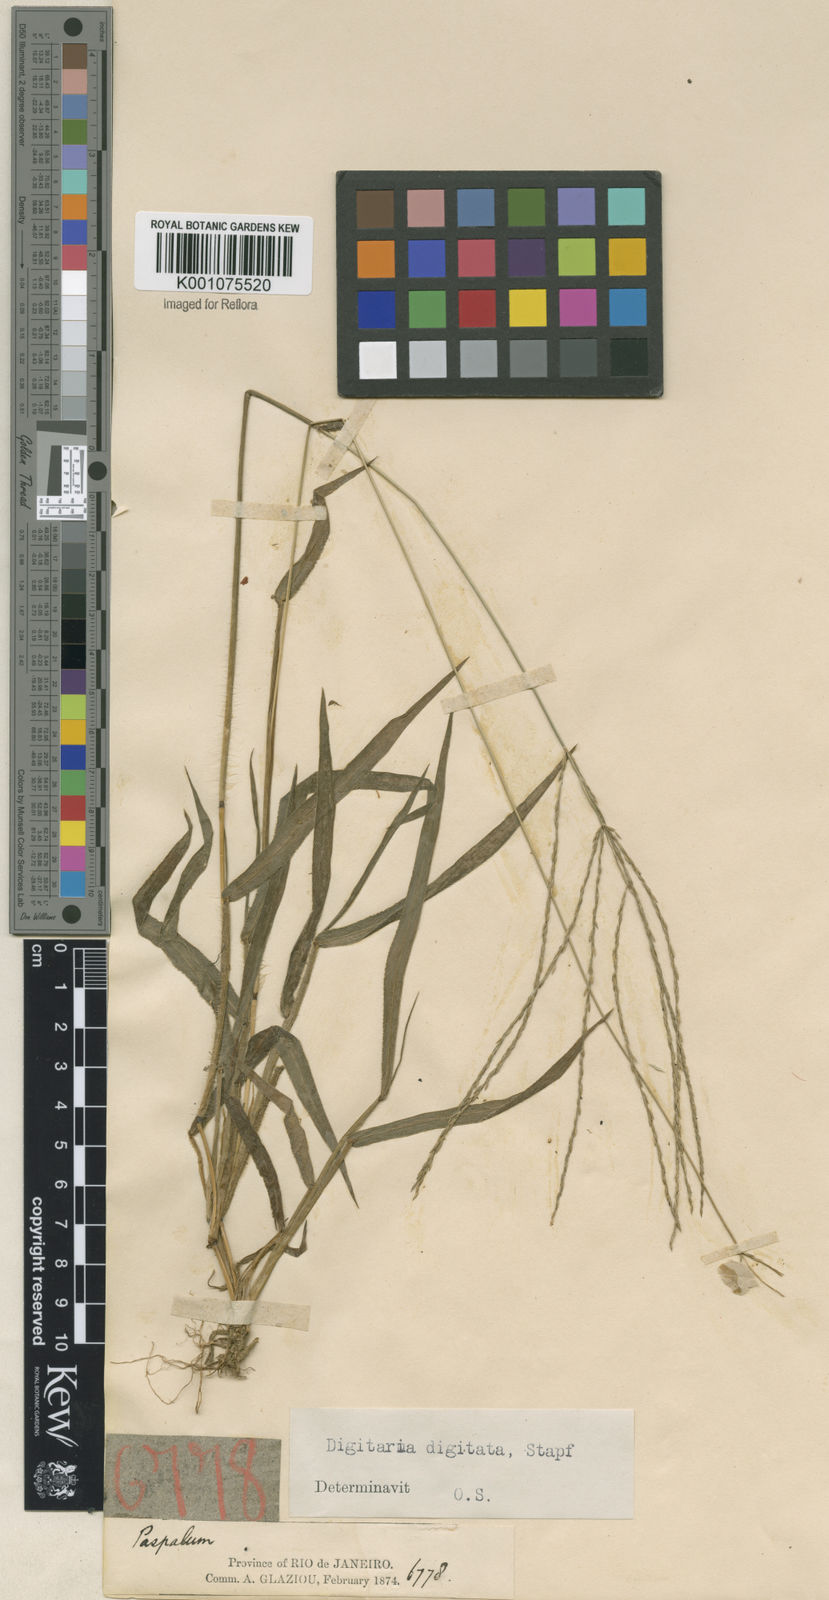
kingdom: Plantae
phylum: Tracheophyta
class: Liliopsida
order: Poales
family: Poaceae
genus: Digitaria
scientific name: Digitaria horizontalis
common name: Jamaican crabgrass
